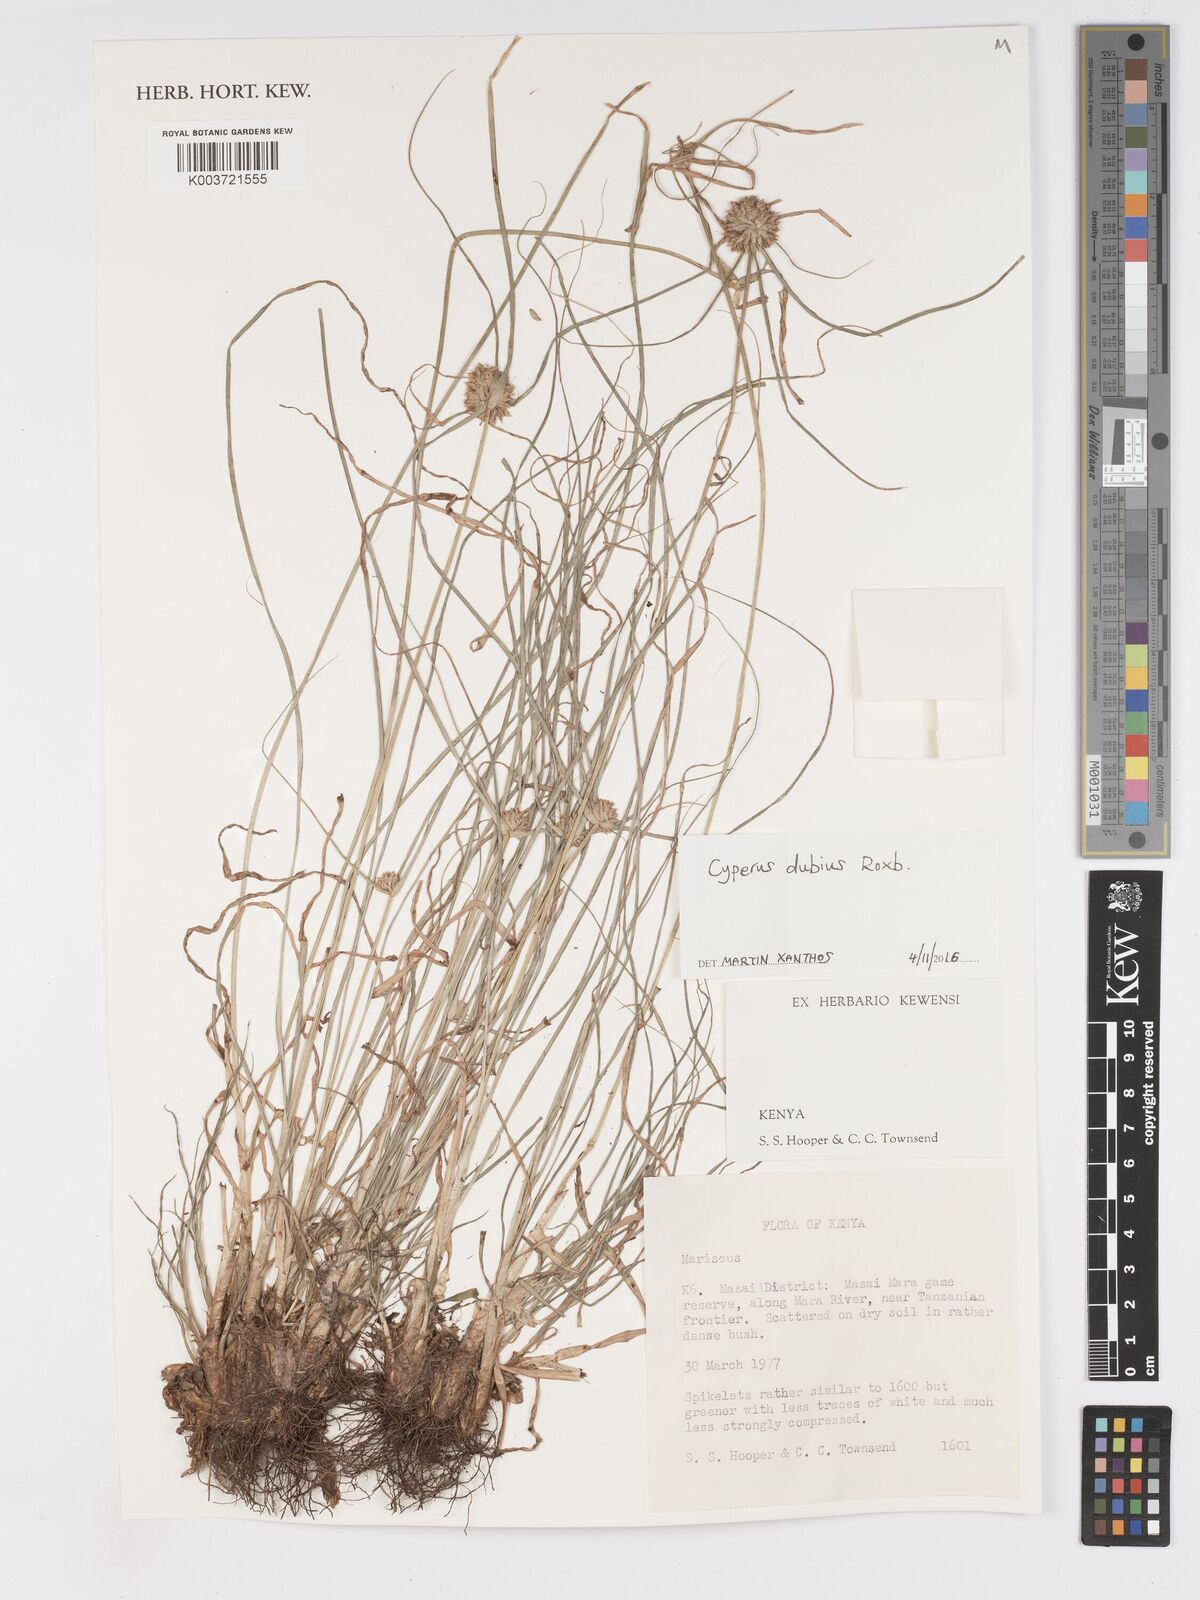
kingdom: Plantae
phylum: Tracheophyta
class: Liliopsida
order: Poales
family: Cyperaceae
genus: Cyperus
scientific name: Cyperus dubius
